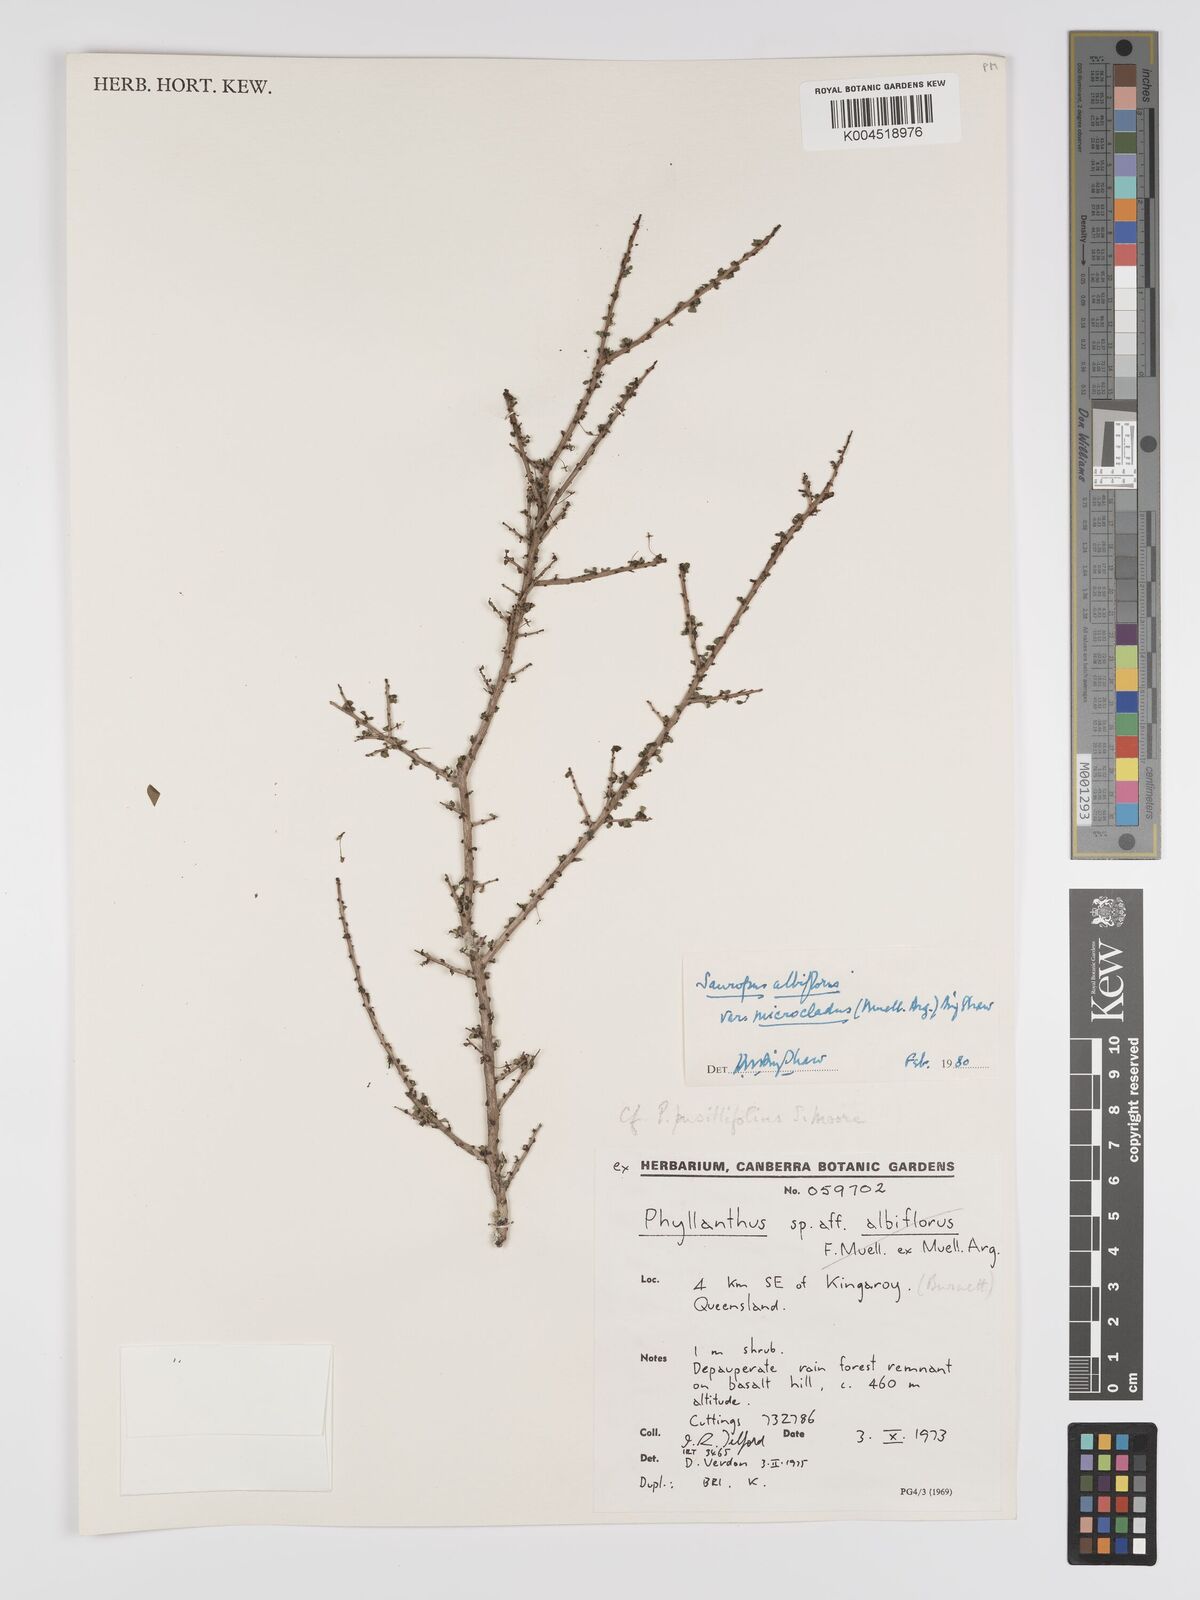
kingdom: Plantae
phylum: Tracheophyta
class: Magnoliopsida
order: Malpighiales
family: Phyllanthaceae
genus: Phyllanthus
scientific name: Phyllanthus microcladus
